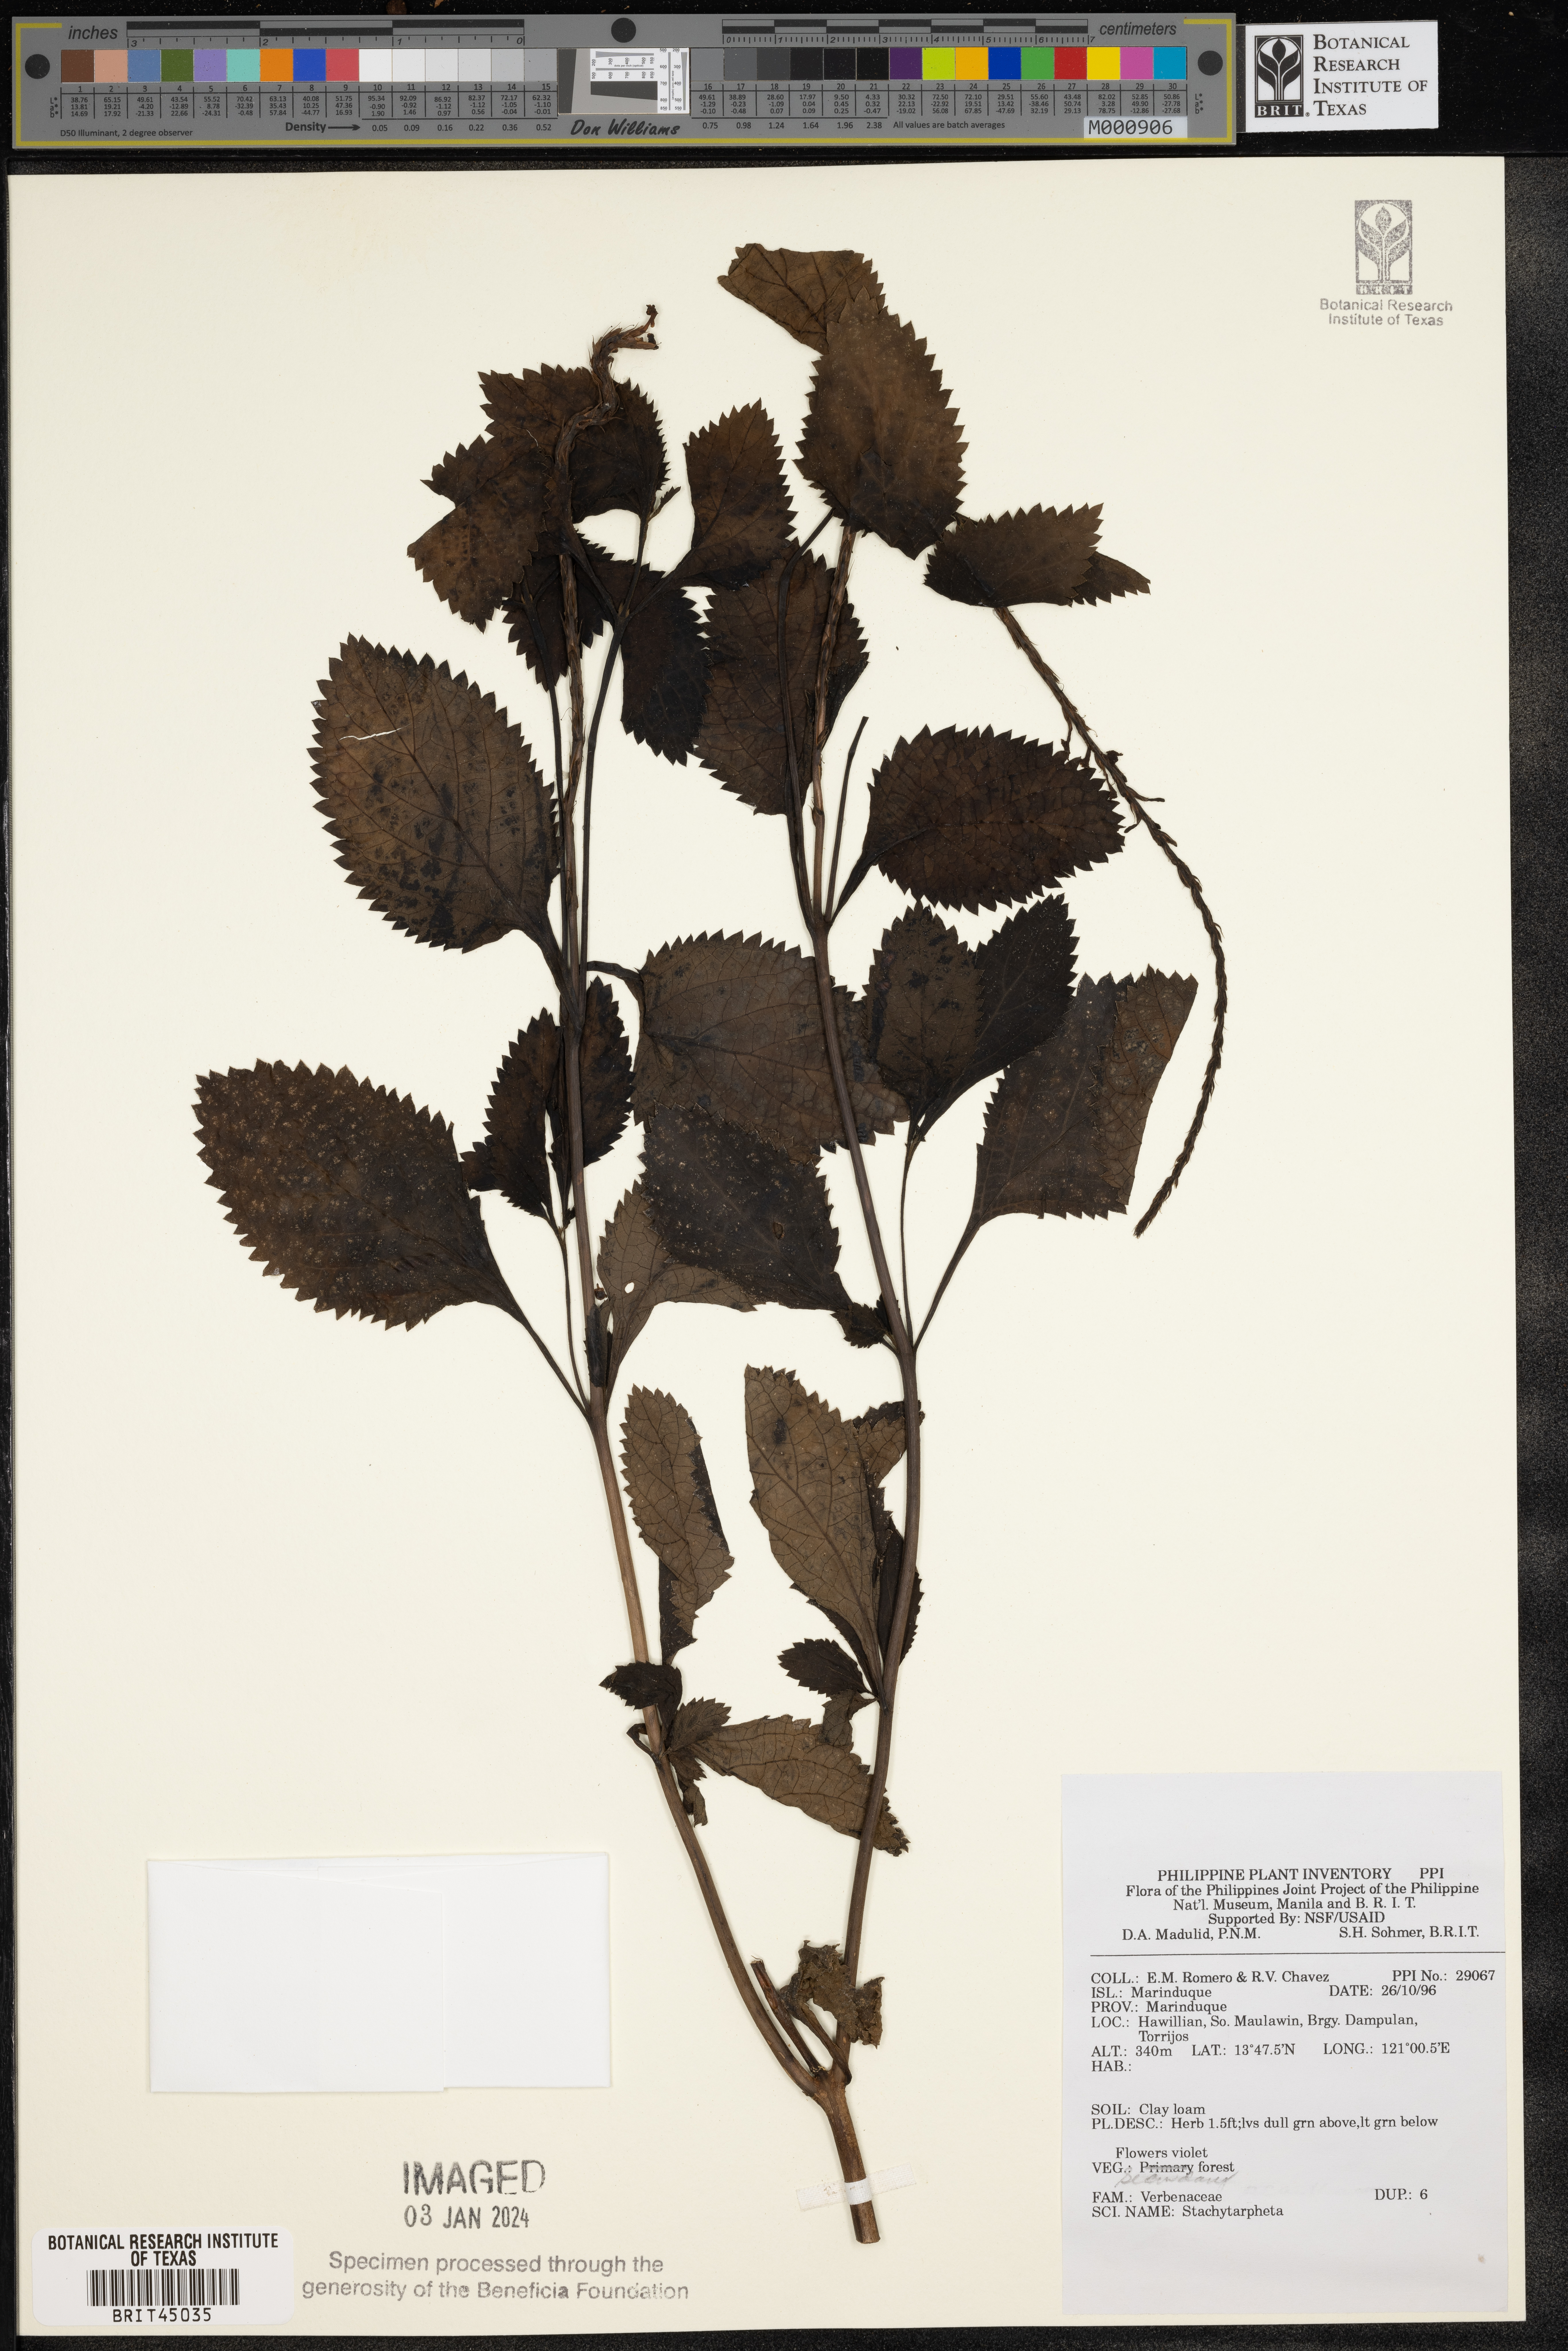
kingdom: Plantae
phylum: Tracheophyta
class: Magnoliopsida
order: Lamiales
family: Verbenaceae
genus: Stachytarpheta
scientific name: Stachytarpheta
